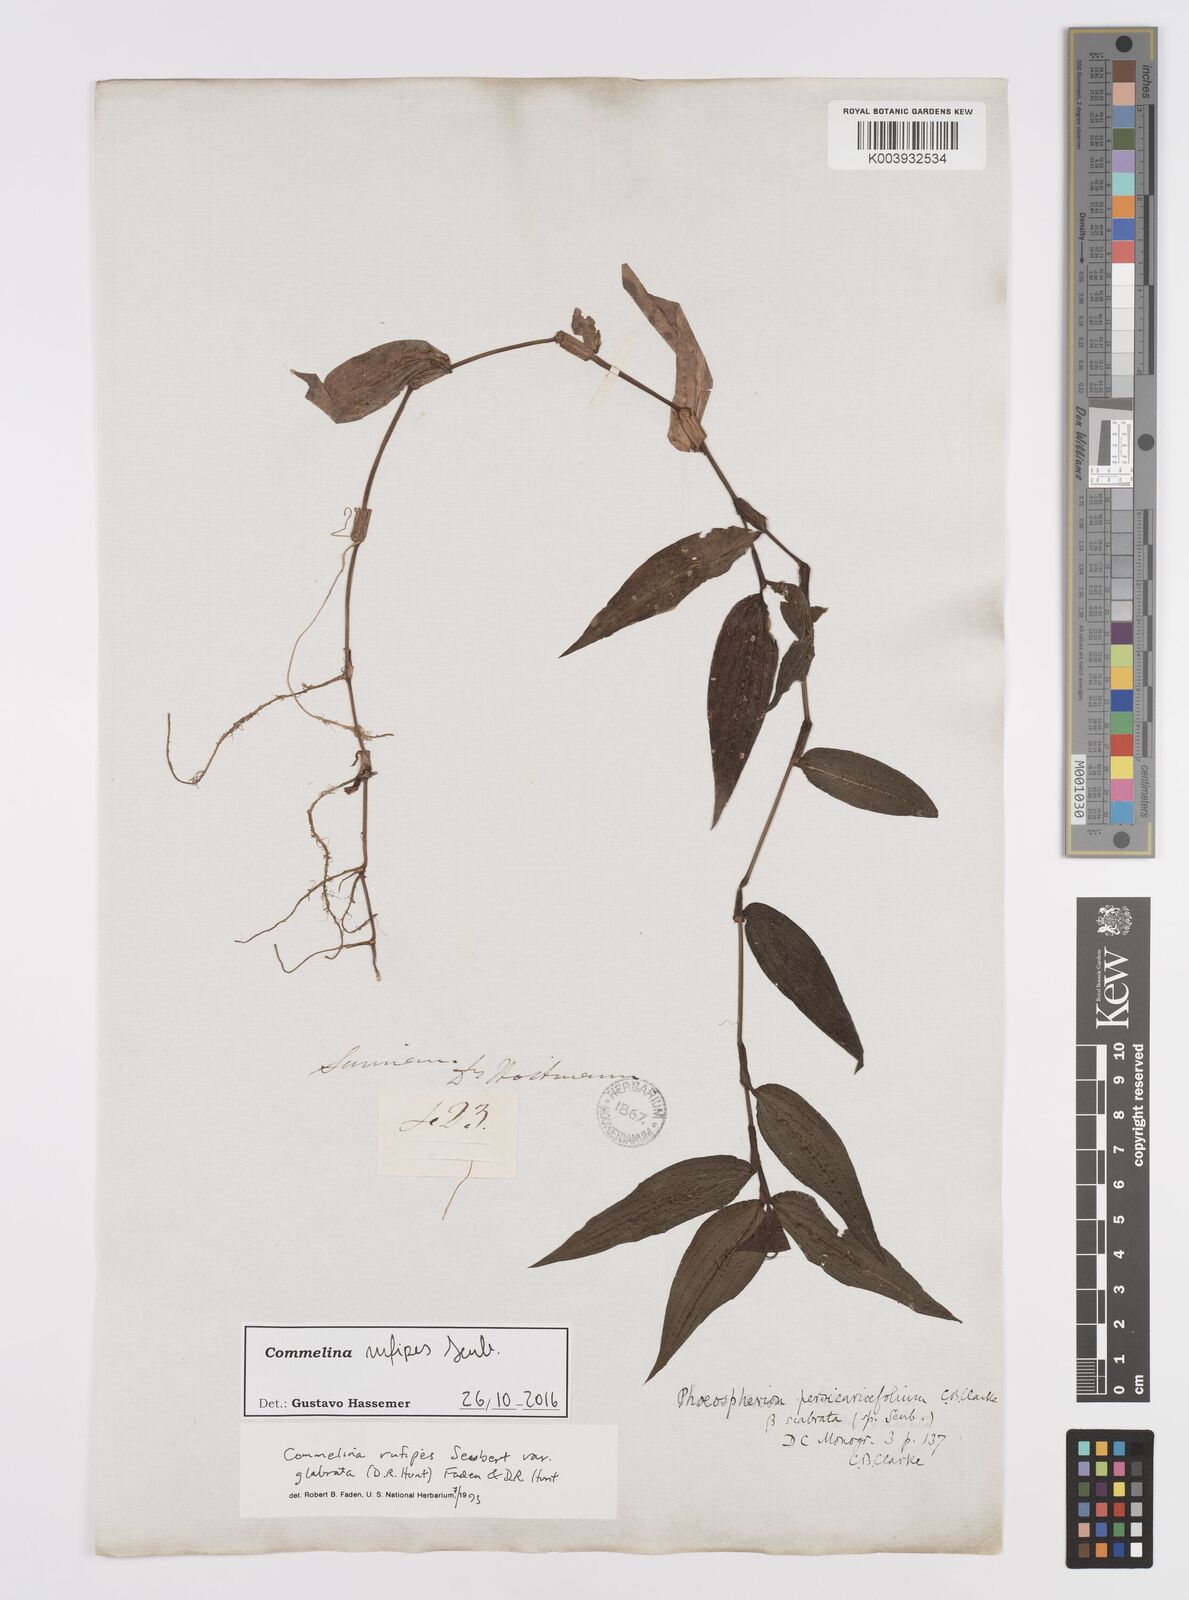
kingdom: Plantae
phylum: Tracheophyta
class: Liliopsida
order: Commelinales
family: Commelinaceae
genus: Commelina
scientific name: Commelina rufipes
